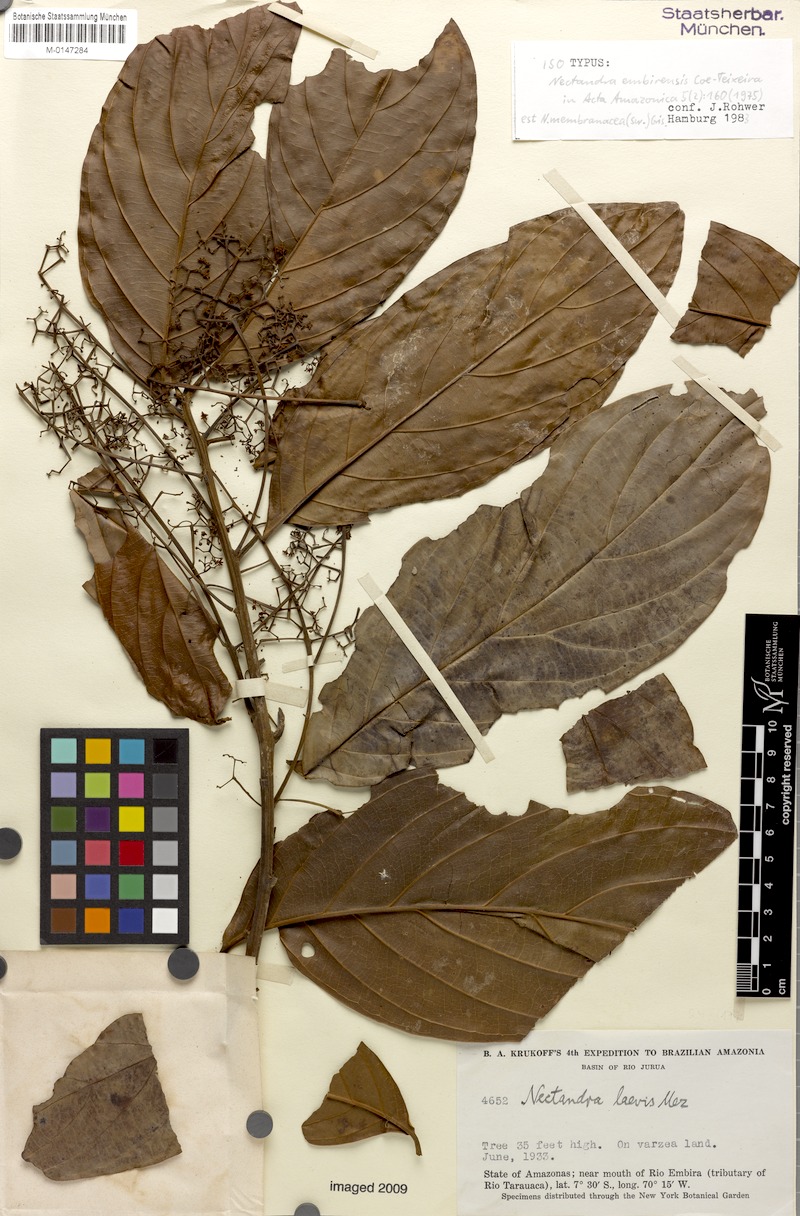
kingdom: Plantae
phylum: Tracheophyta
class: Magnoliopsida
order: Laurales
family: Lauraceae
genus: Nectandra
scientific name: Nectandra embirensis
